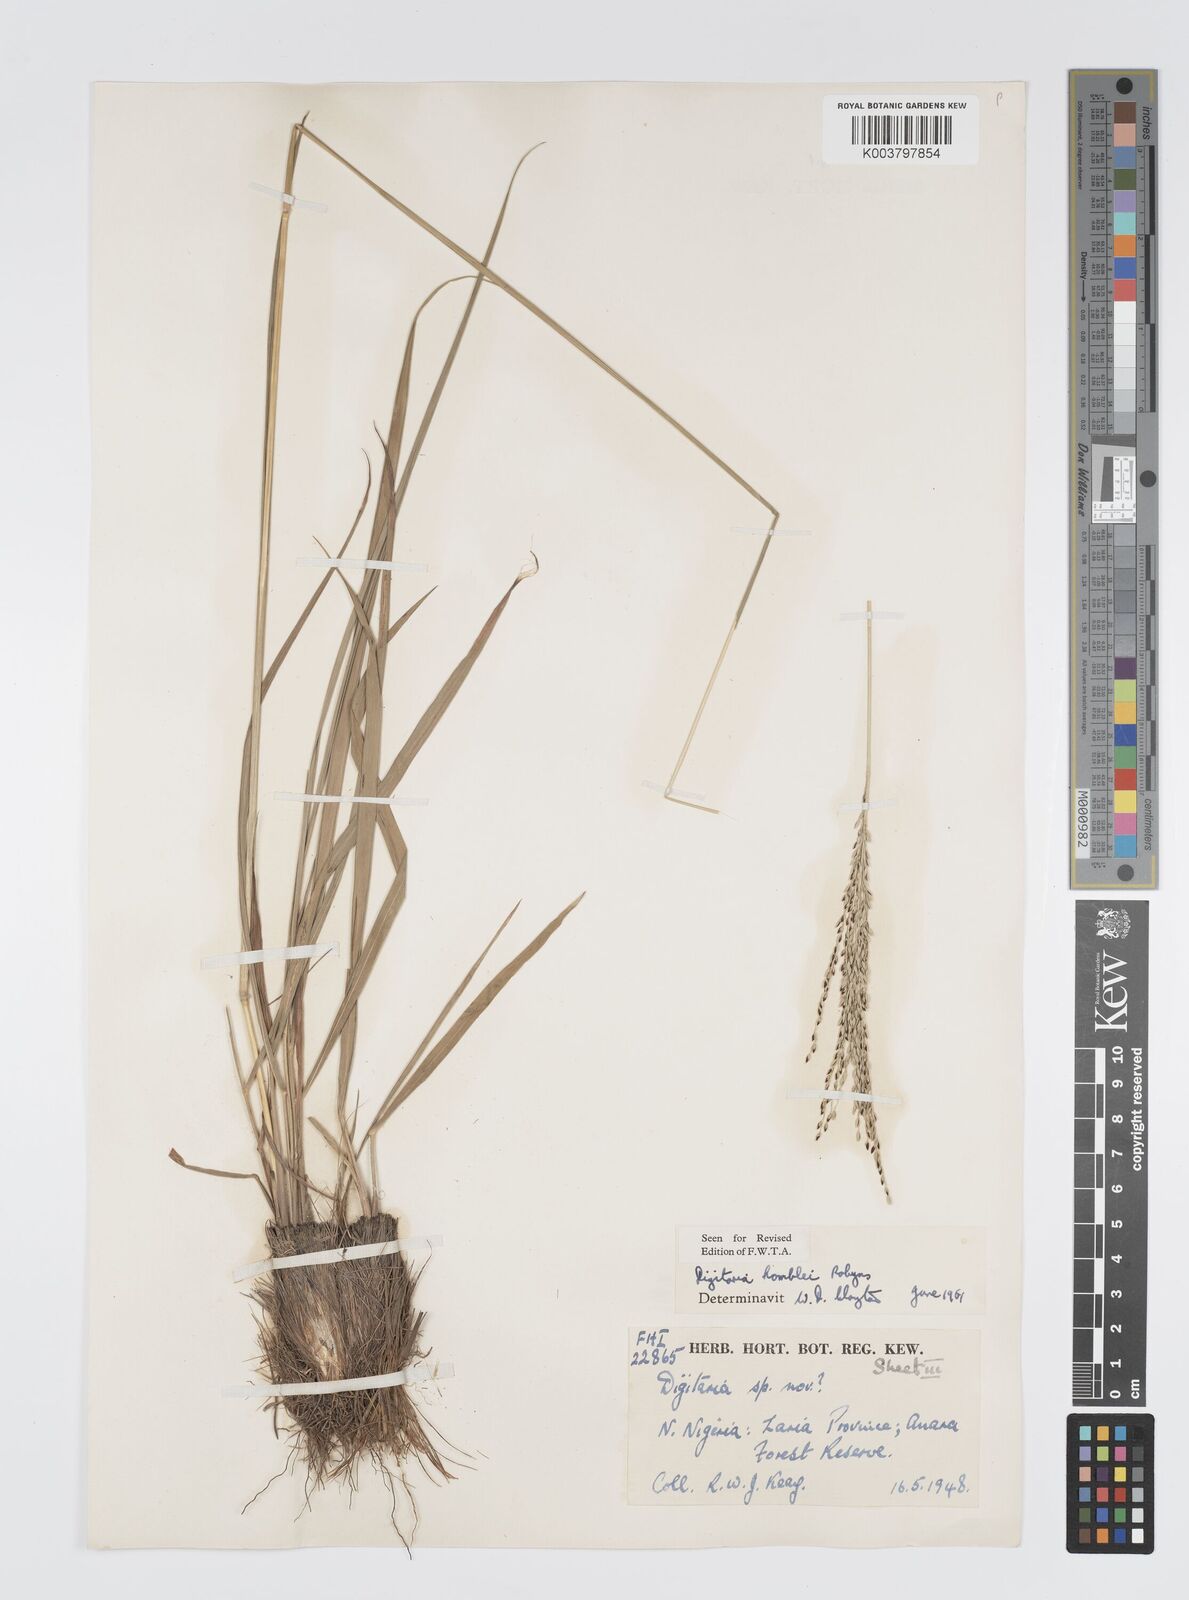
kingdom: Plantae
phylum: Tracheophyta
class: Liliopsida
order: Poales
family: Poaceae
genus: Digitaria
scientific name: Digitaria compressa
